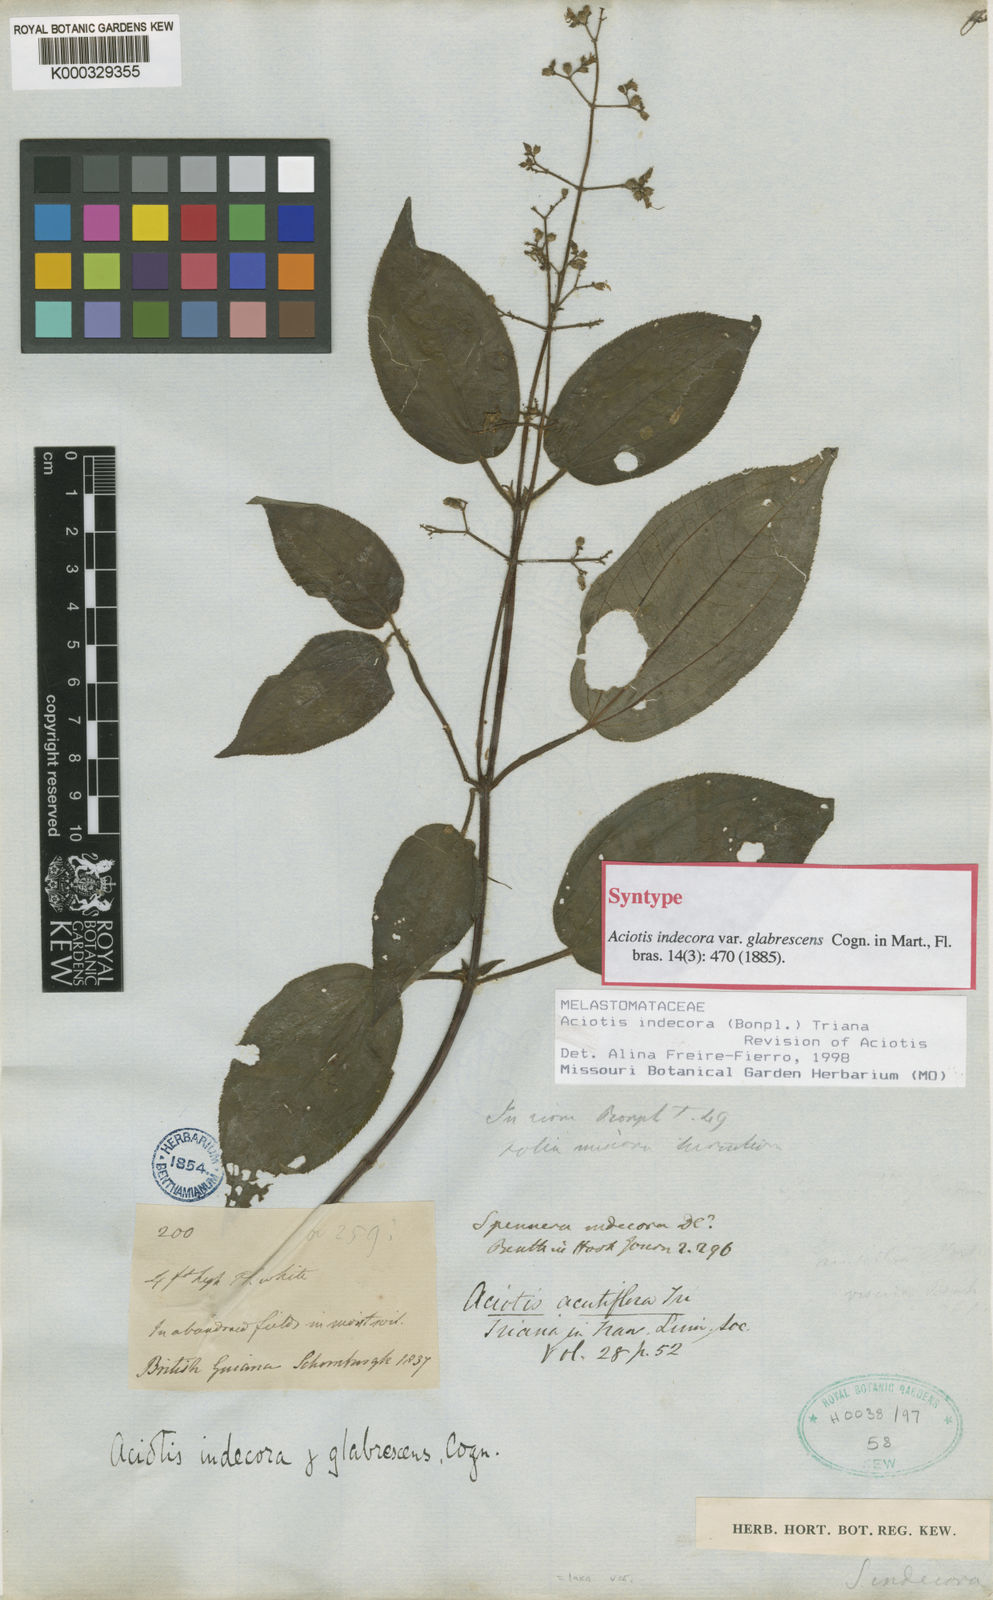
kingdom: Plantae
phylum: Tracheophyta
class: Magnoliopsida
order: Myrtales
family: Melastomataceae
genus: Aciotis
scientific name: Aciotis indecora
